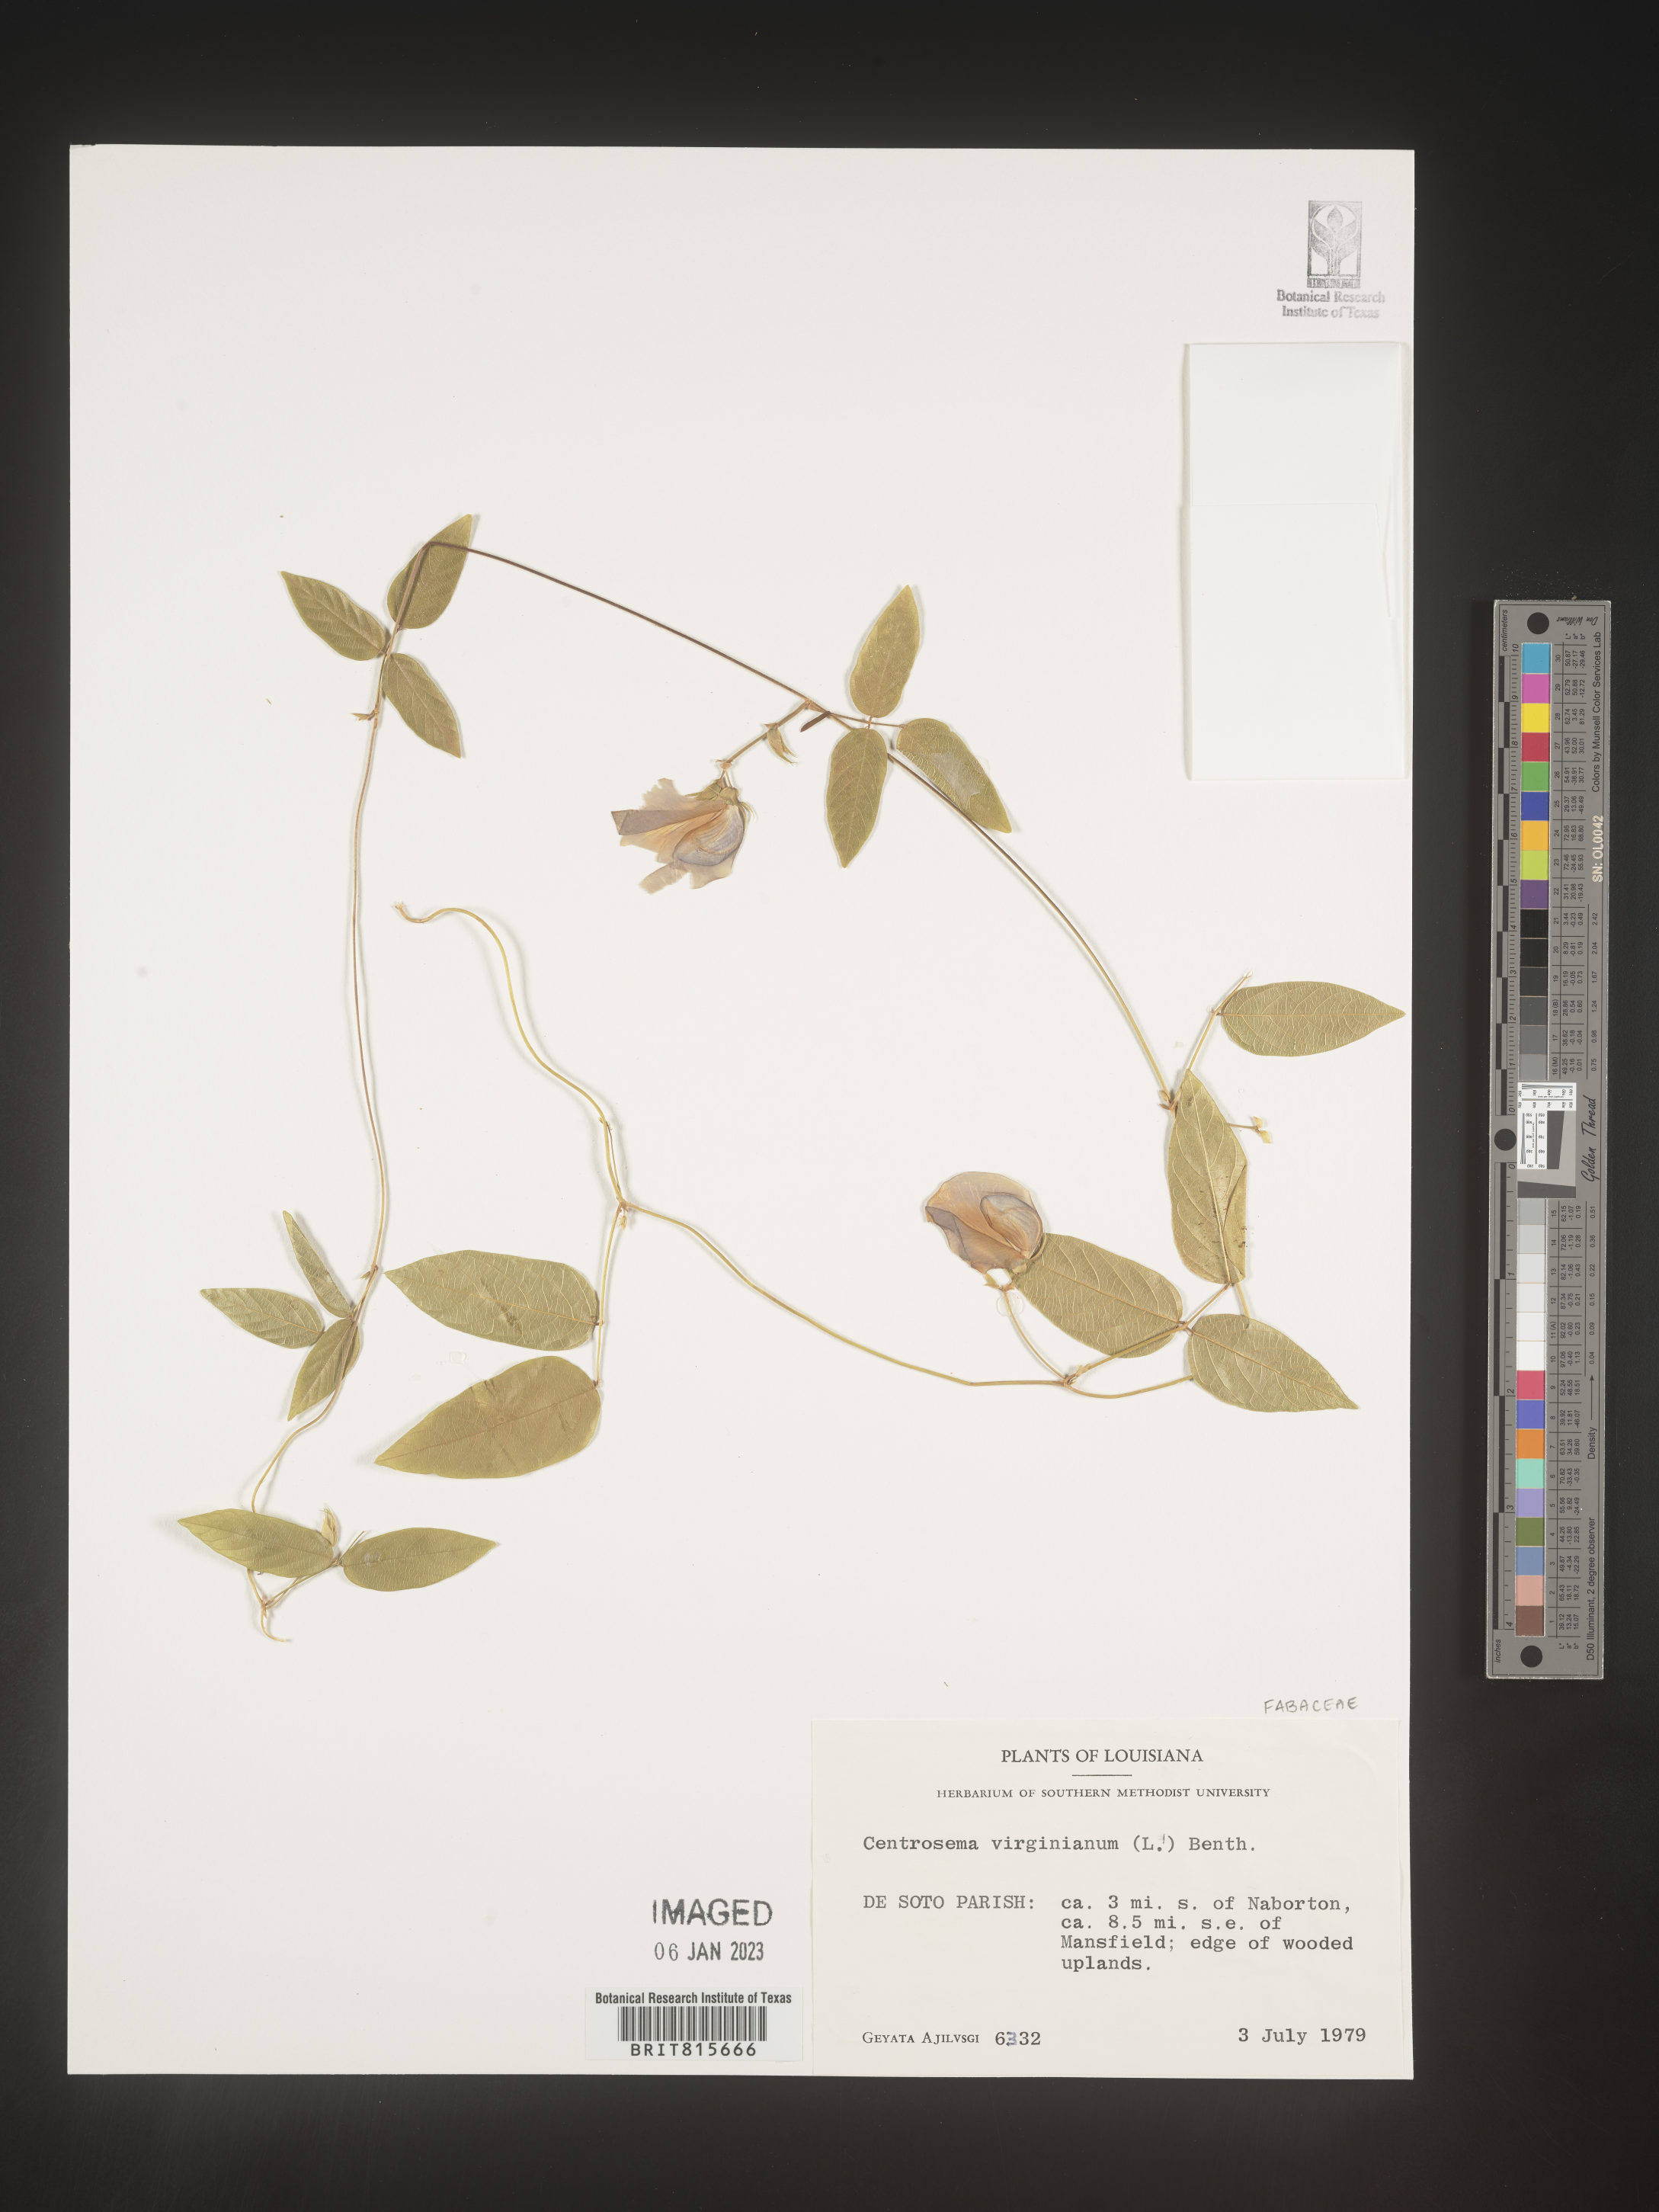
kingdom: Plantae
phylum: Tracheophyta
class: Magnoliopsida
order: Fabales
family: Fabaceae
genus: Centrosema
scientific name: Centrosema virginianum
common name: Butterfly-pea
